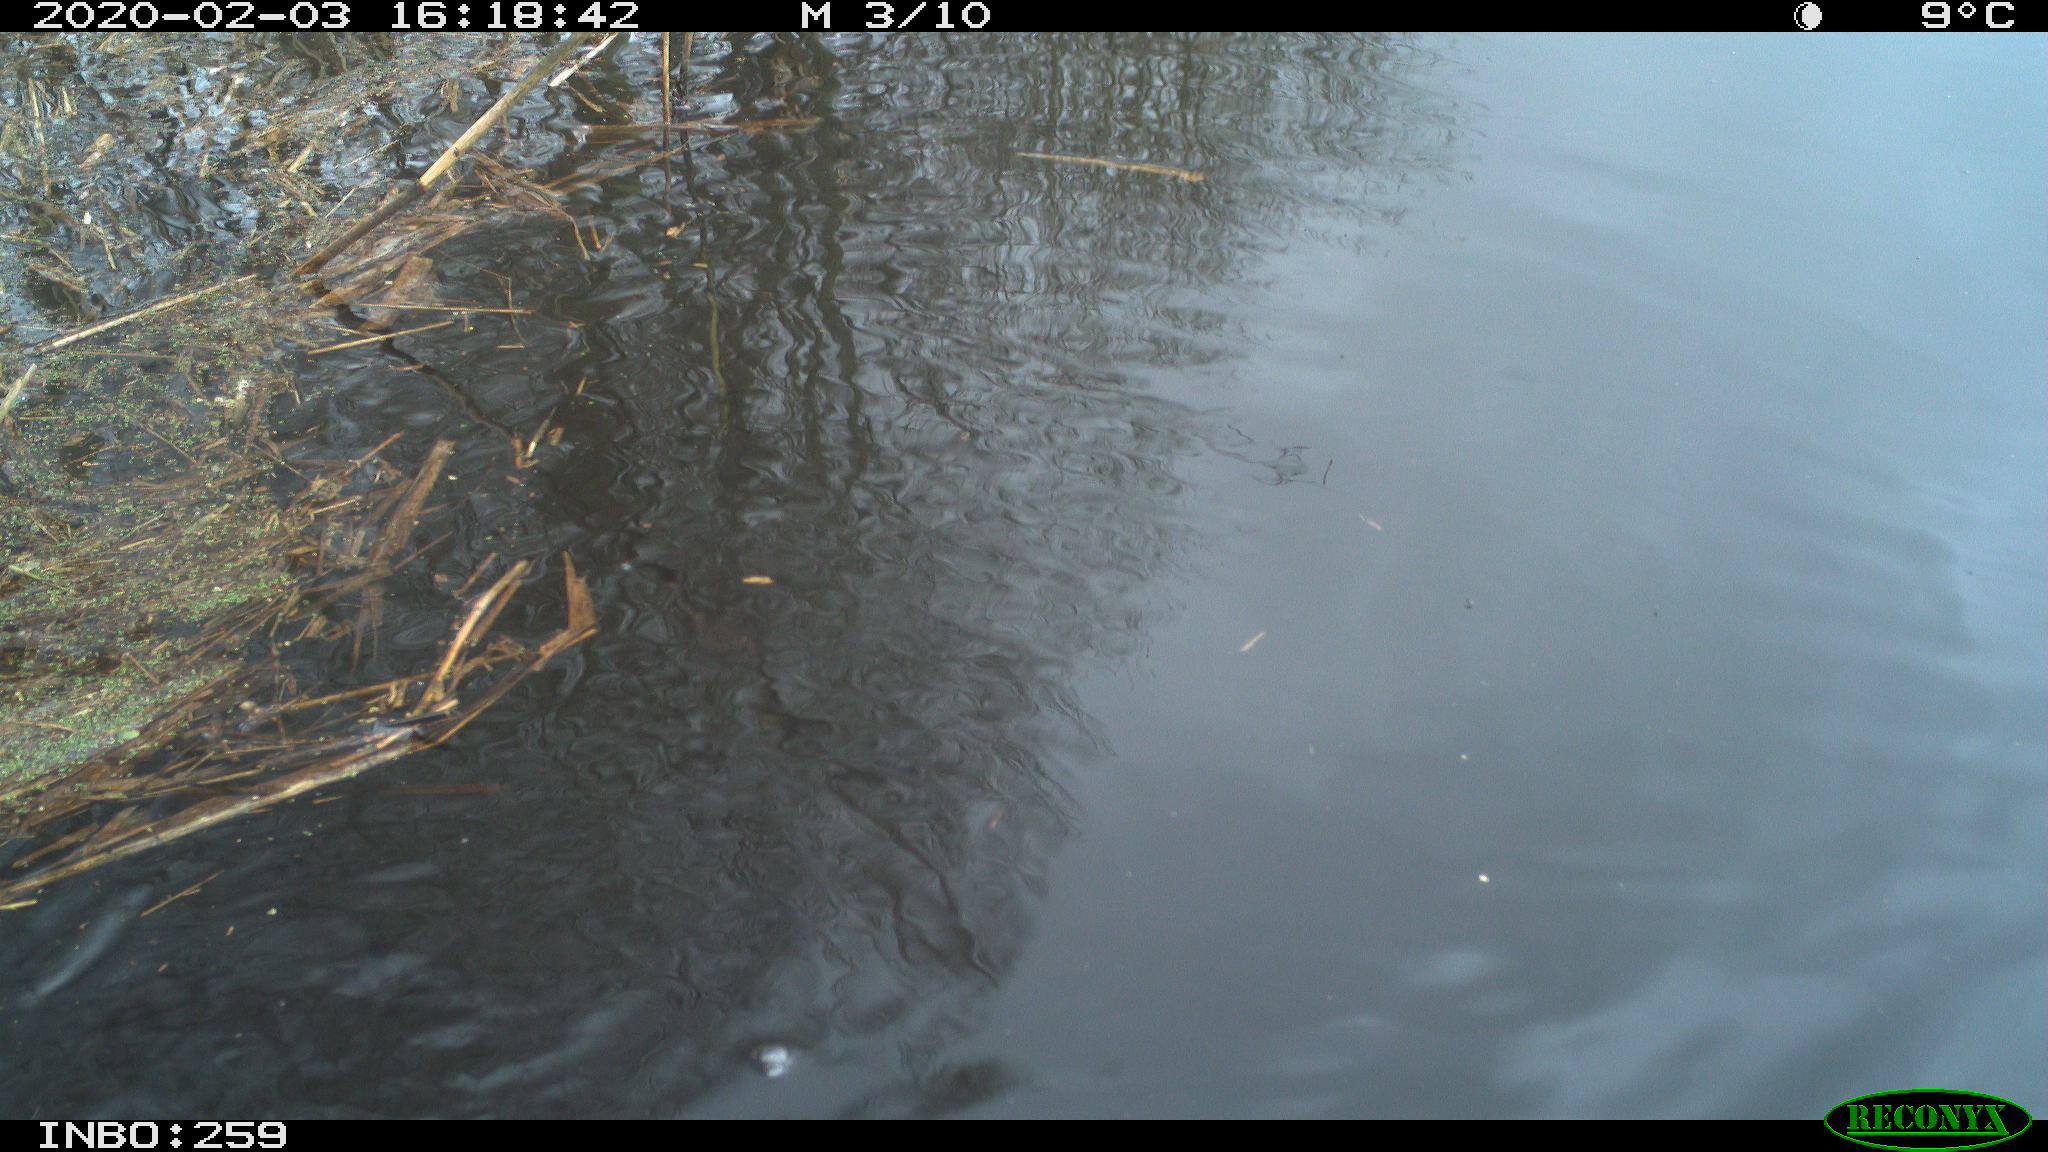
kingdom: Animalia
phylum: Chordata
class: Aves
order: Gruiformes
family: Rallidae
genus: Gallinula
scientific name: Gallinula chloropus
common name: Common moorhen
